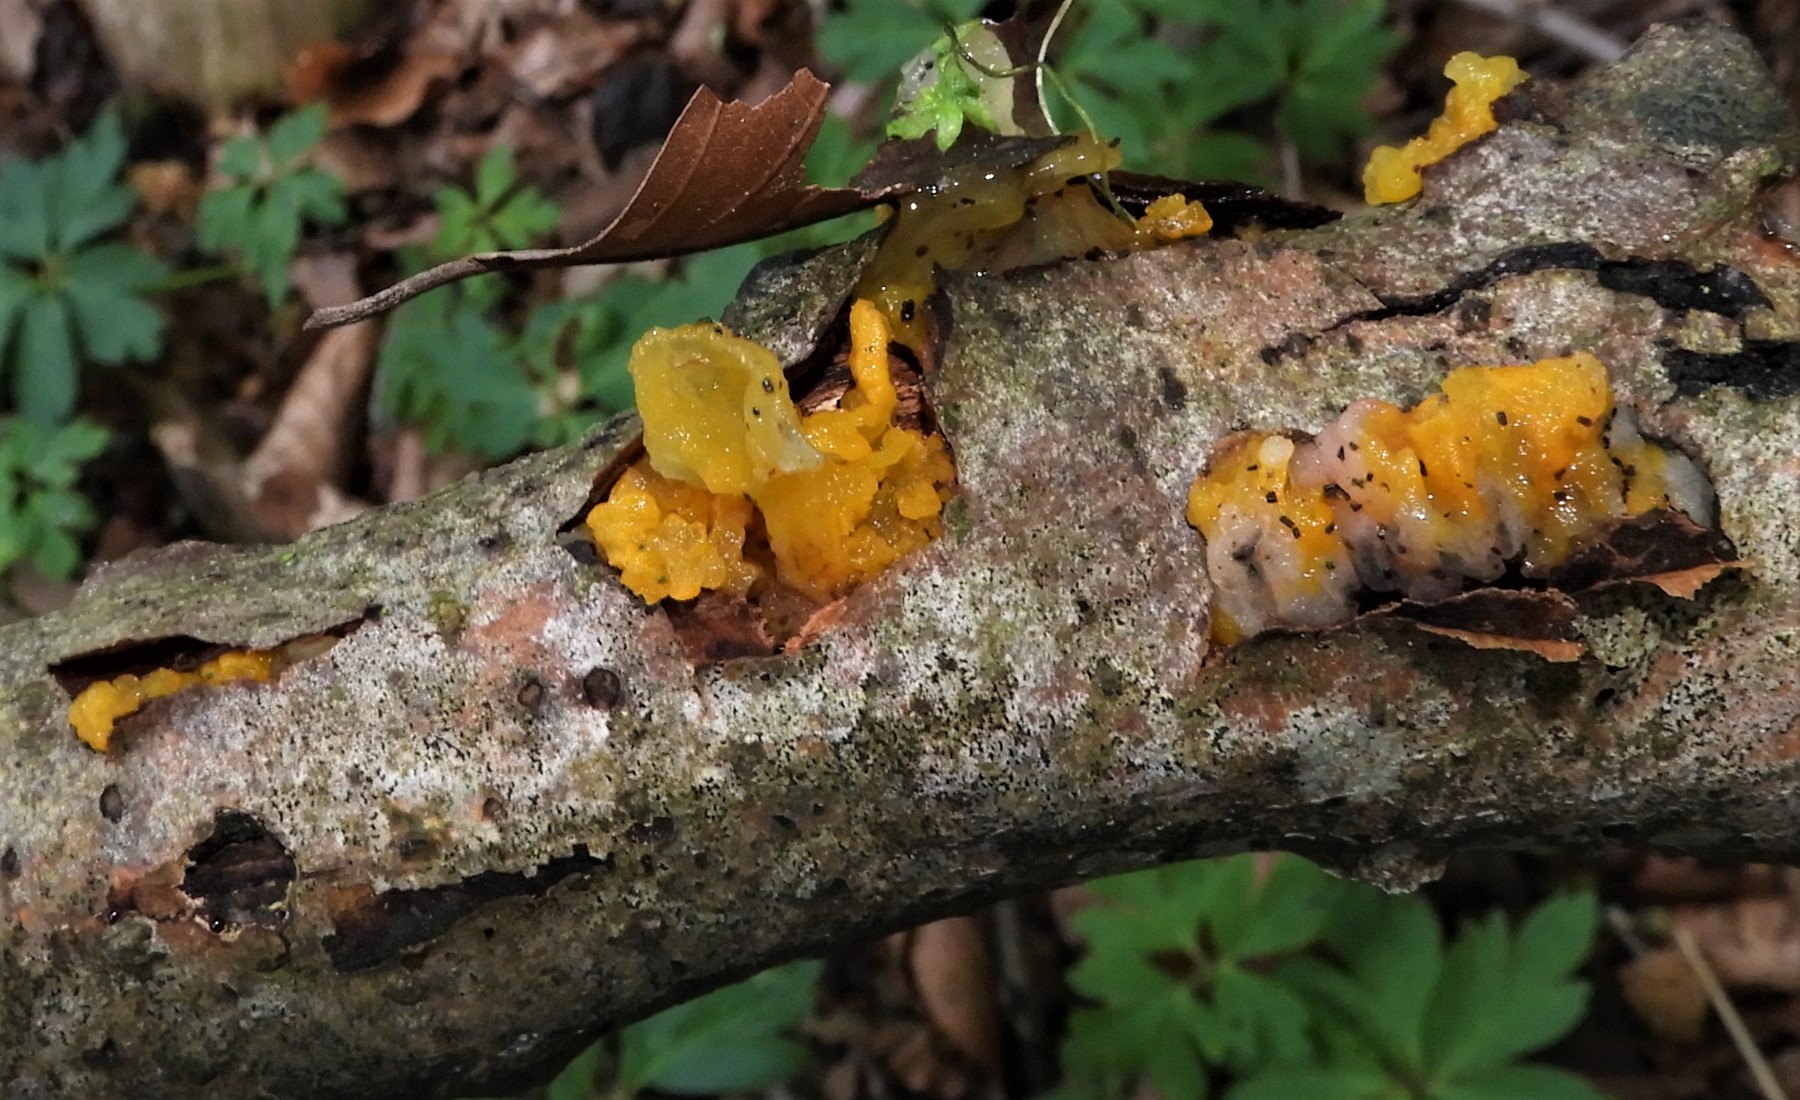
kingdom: Fungi
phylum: Basidiomycota
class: Tremellomycetes
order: Tremellales
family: Tremellaceae
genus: Tremella
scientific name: Tremella mesenterica
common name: gul bævresvamp
